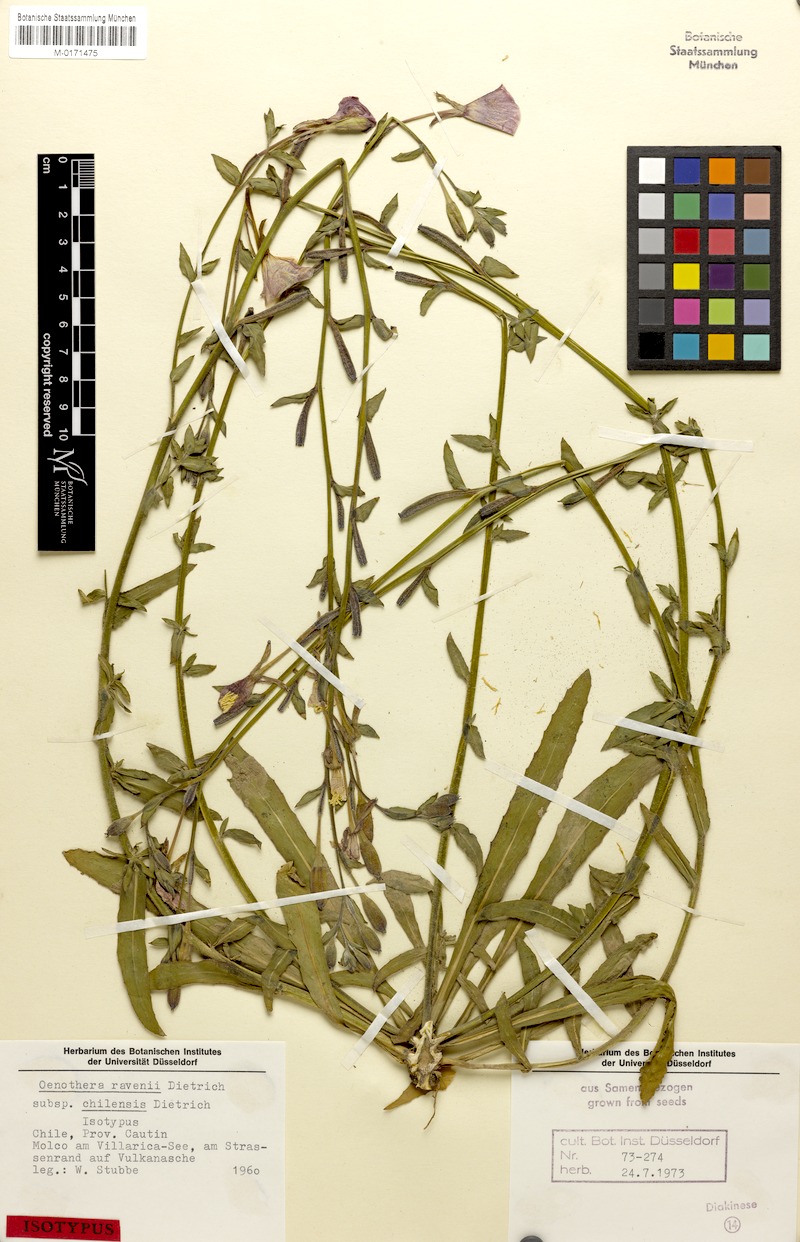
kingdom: Plantae
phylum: Tracheophyta
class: Magnoliopsida
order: Myrtales
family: Onagraceae
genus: Oenothera
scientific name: Oenothera ravenii
